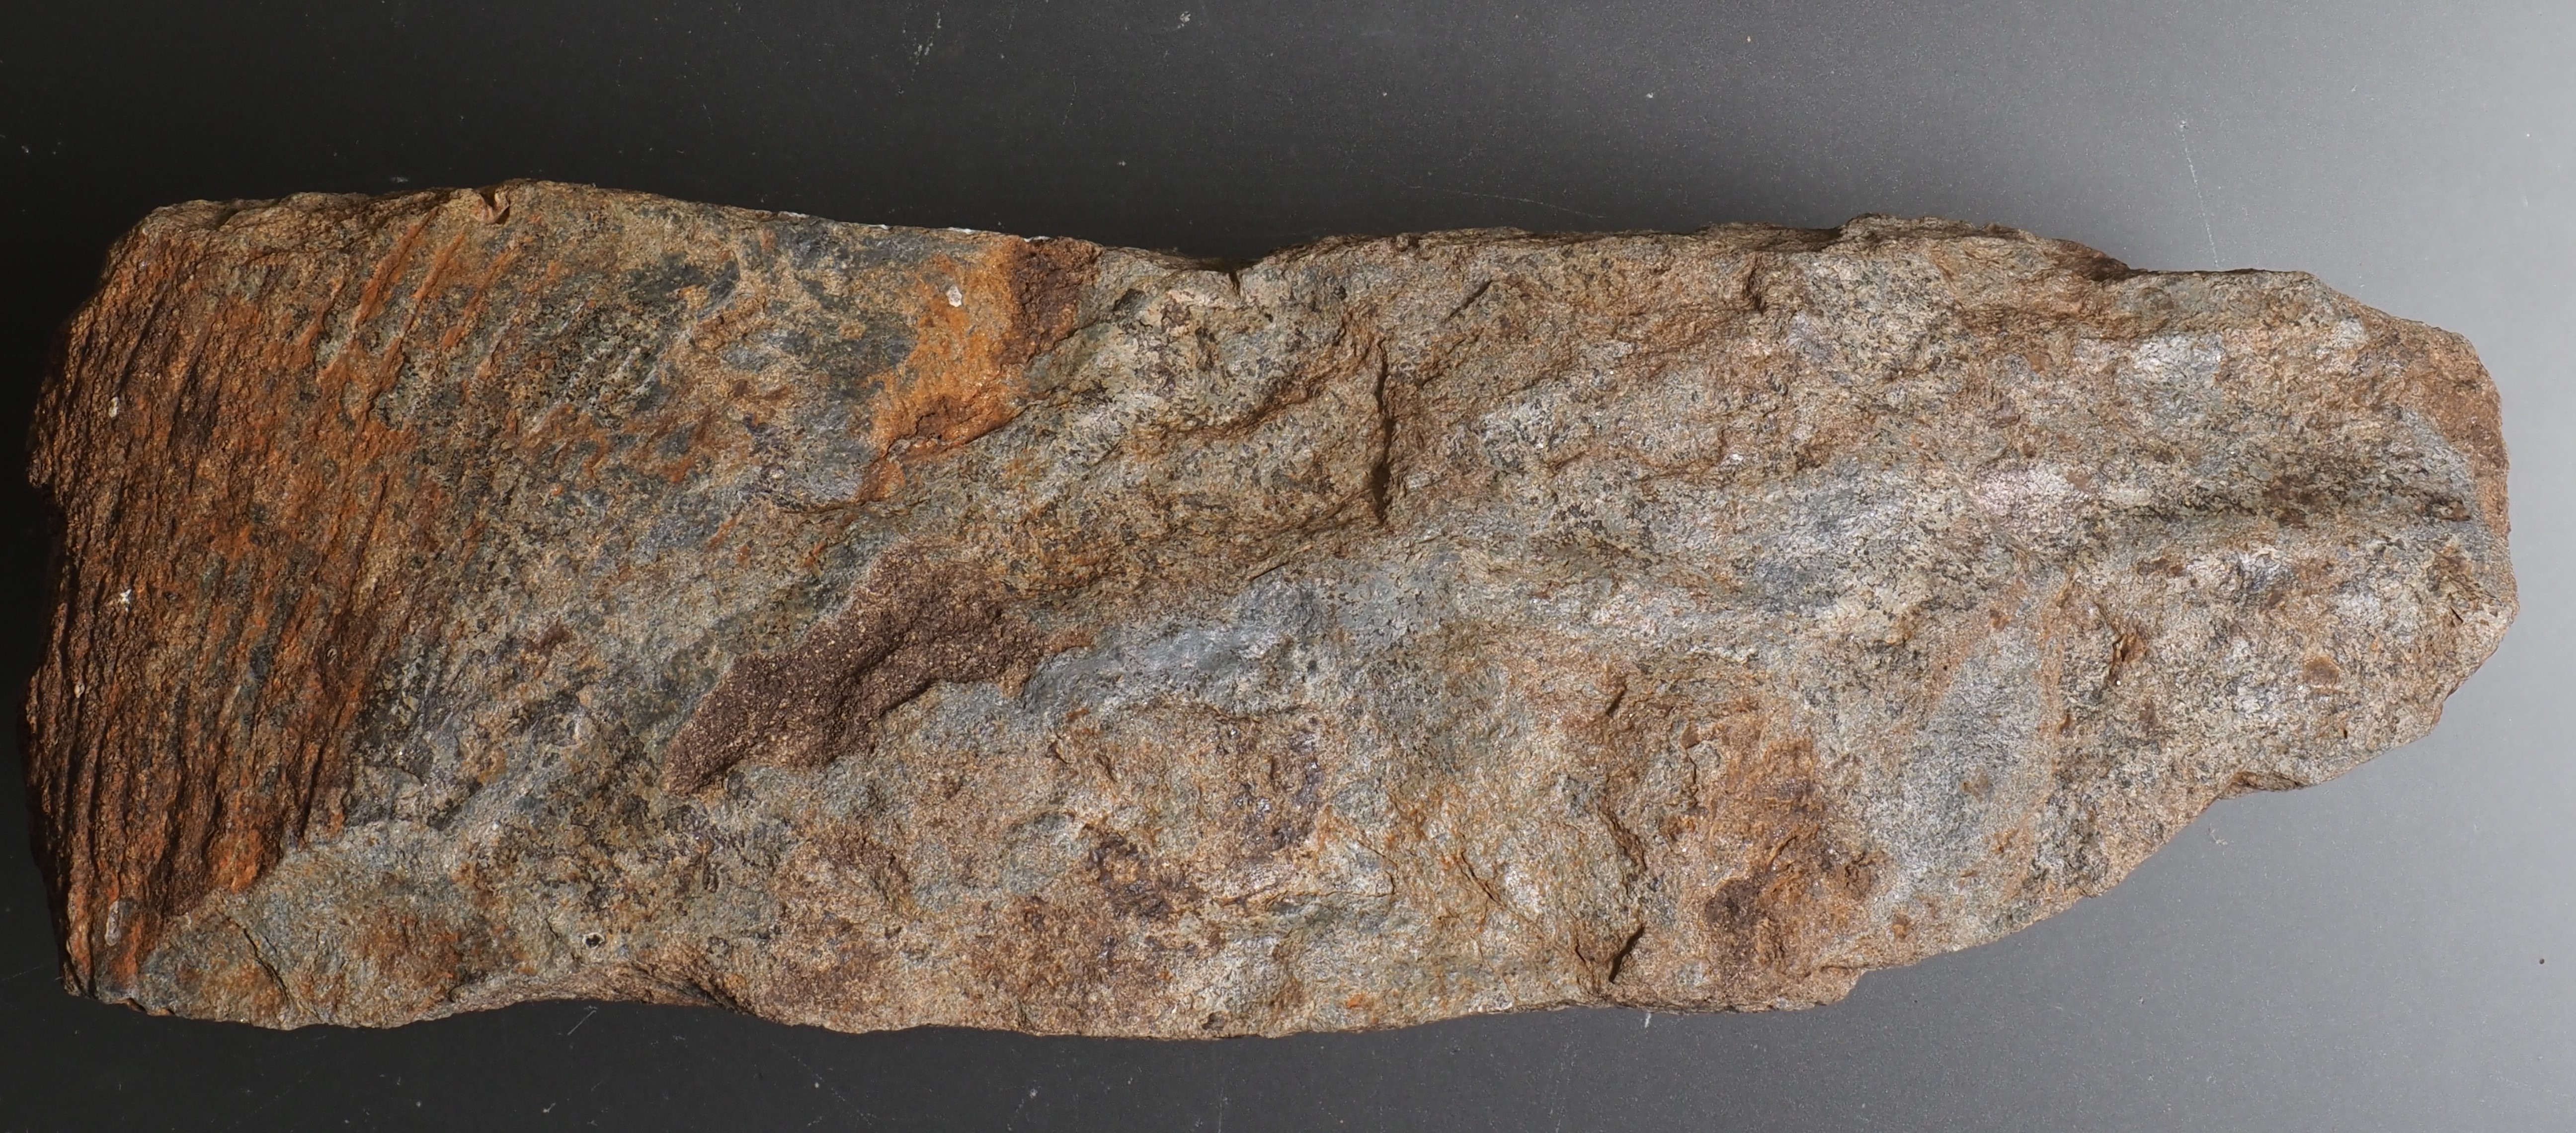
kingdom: Animalia
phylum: Arthropoda
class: Trilobita
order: Phacopida
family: Homalonotidae
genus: Wenndorfia
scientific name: Wenndorfia
